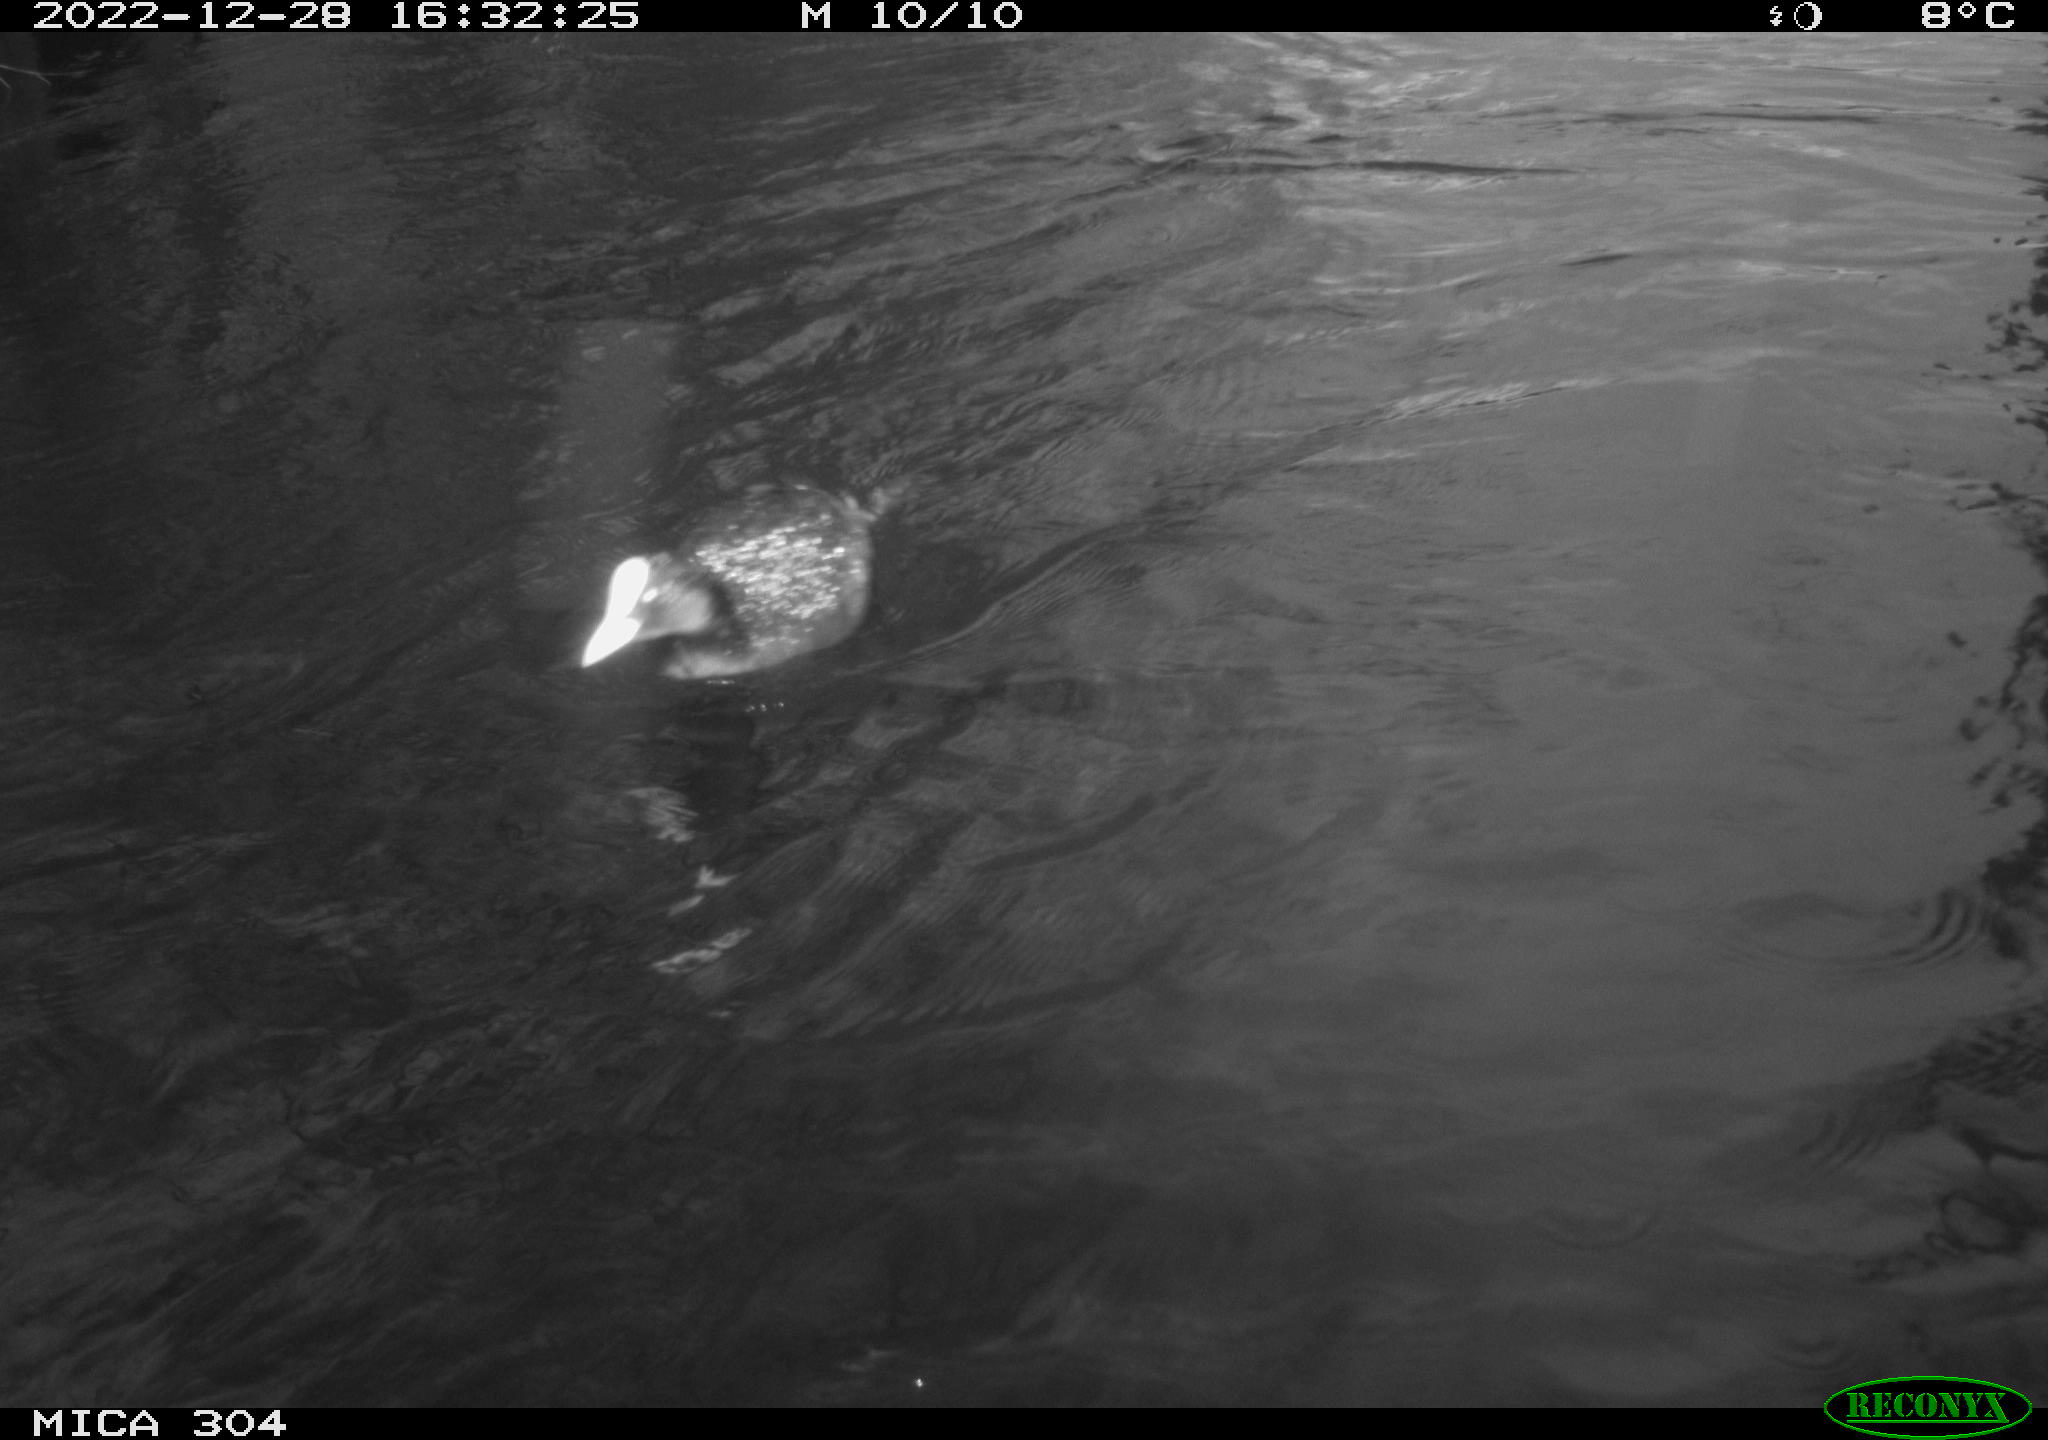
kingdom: Animalia
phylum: Chordata
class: Mammalia
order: Rodentia
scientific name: Rodentia
